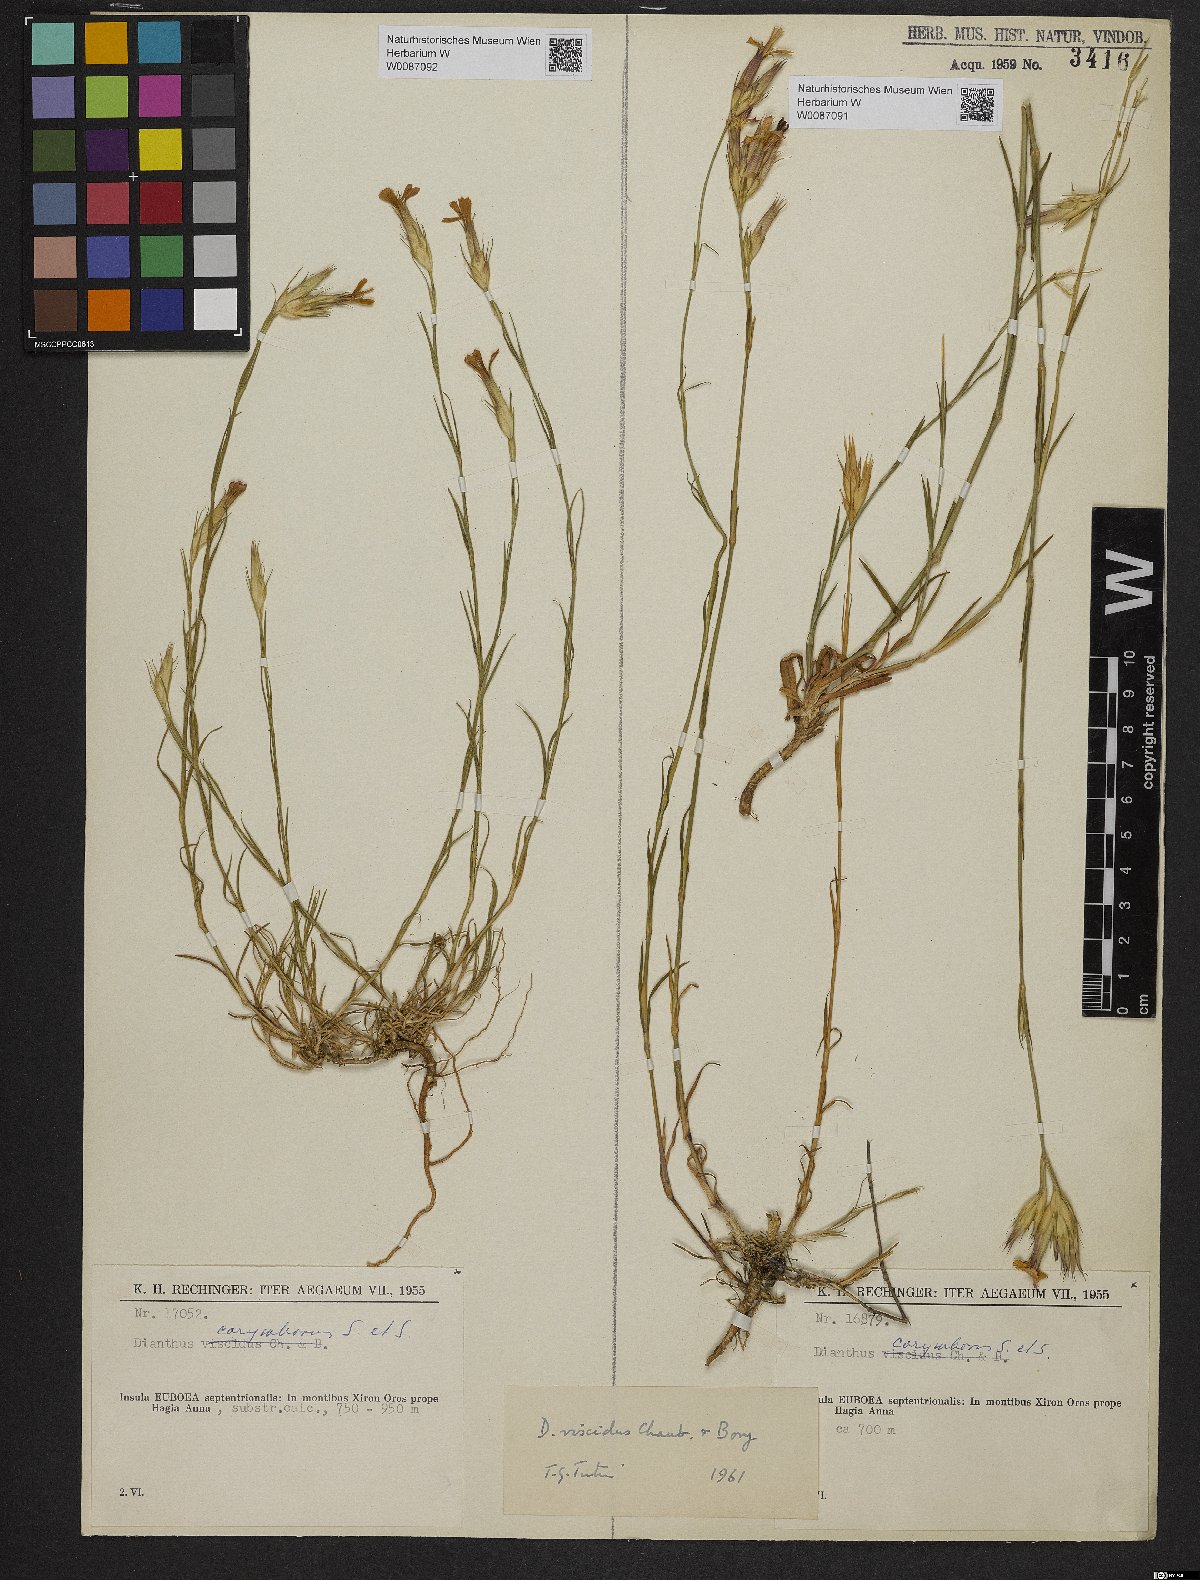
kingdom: Plantae
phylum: Tracheophyta
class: Magnoliopsida
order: Caryophyllales
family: Caryophyllaceae
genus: Dianthus
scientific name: Dianthus viscidus
